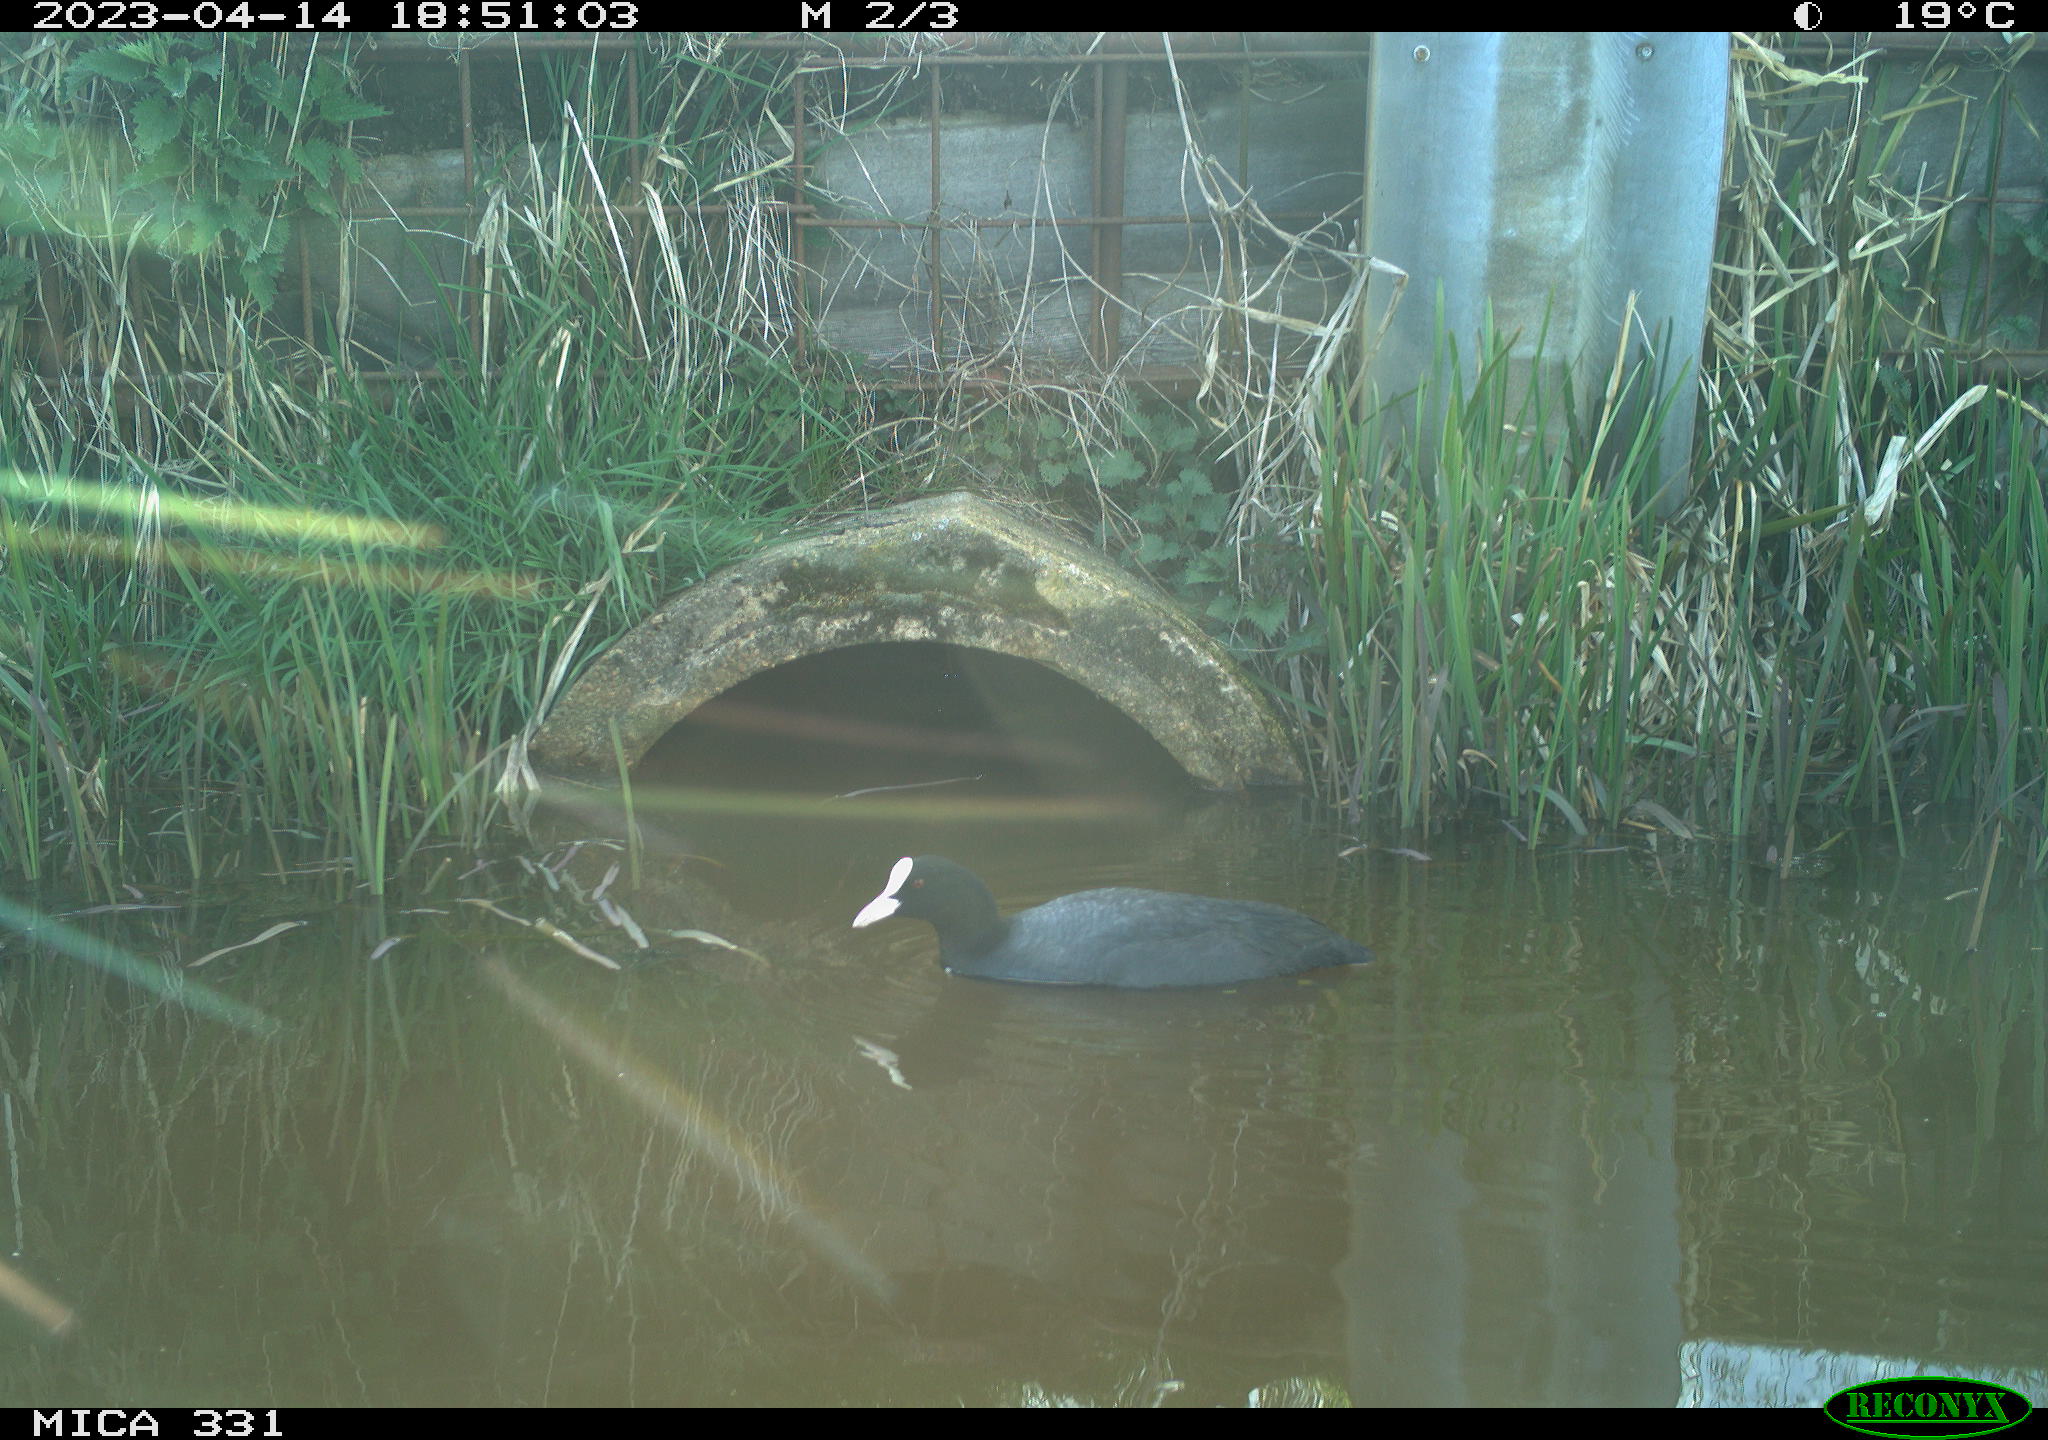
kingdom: Animalia
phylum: Chordata
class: Aves
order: Gruiformes
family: Rallidae
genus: Fulica
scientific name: Fulica atra
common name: Eurasian coot
